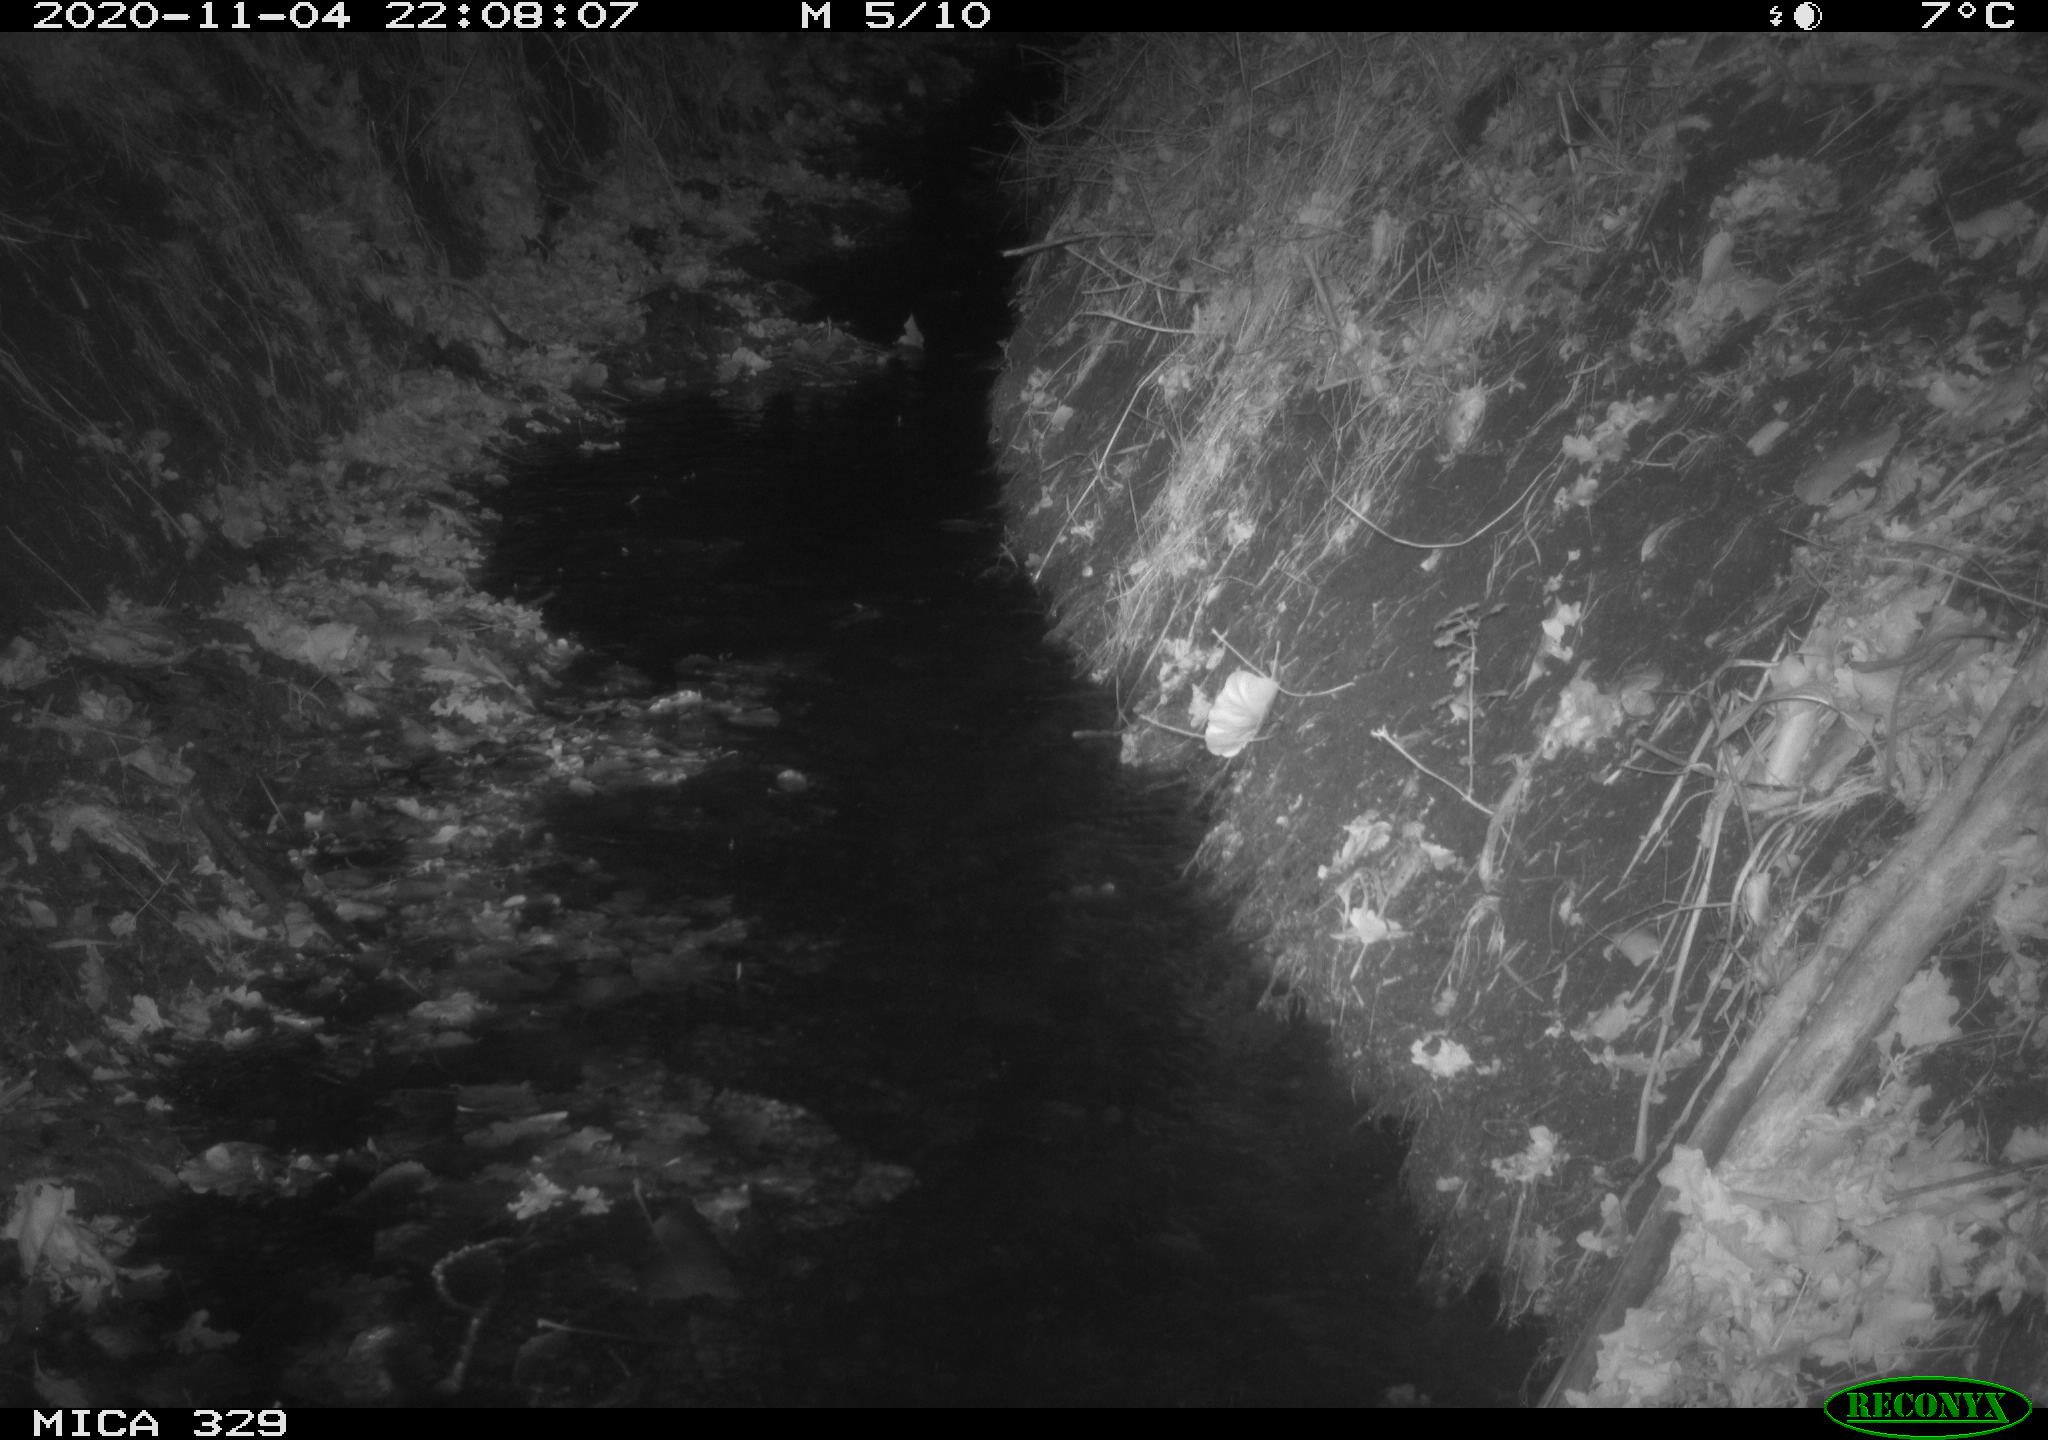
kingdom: Animalia
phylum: Chordata
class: Mammalia
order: Rodentia
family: Cricetidae
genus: Ondatra
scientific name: Ondatra zibethicus
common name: Muskrat
